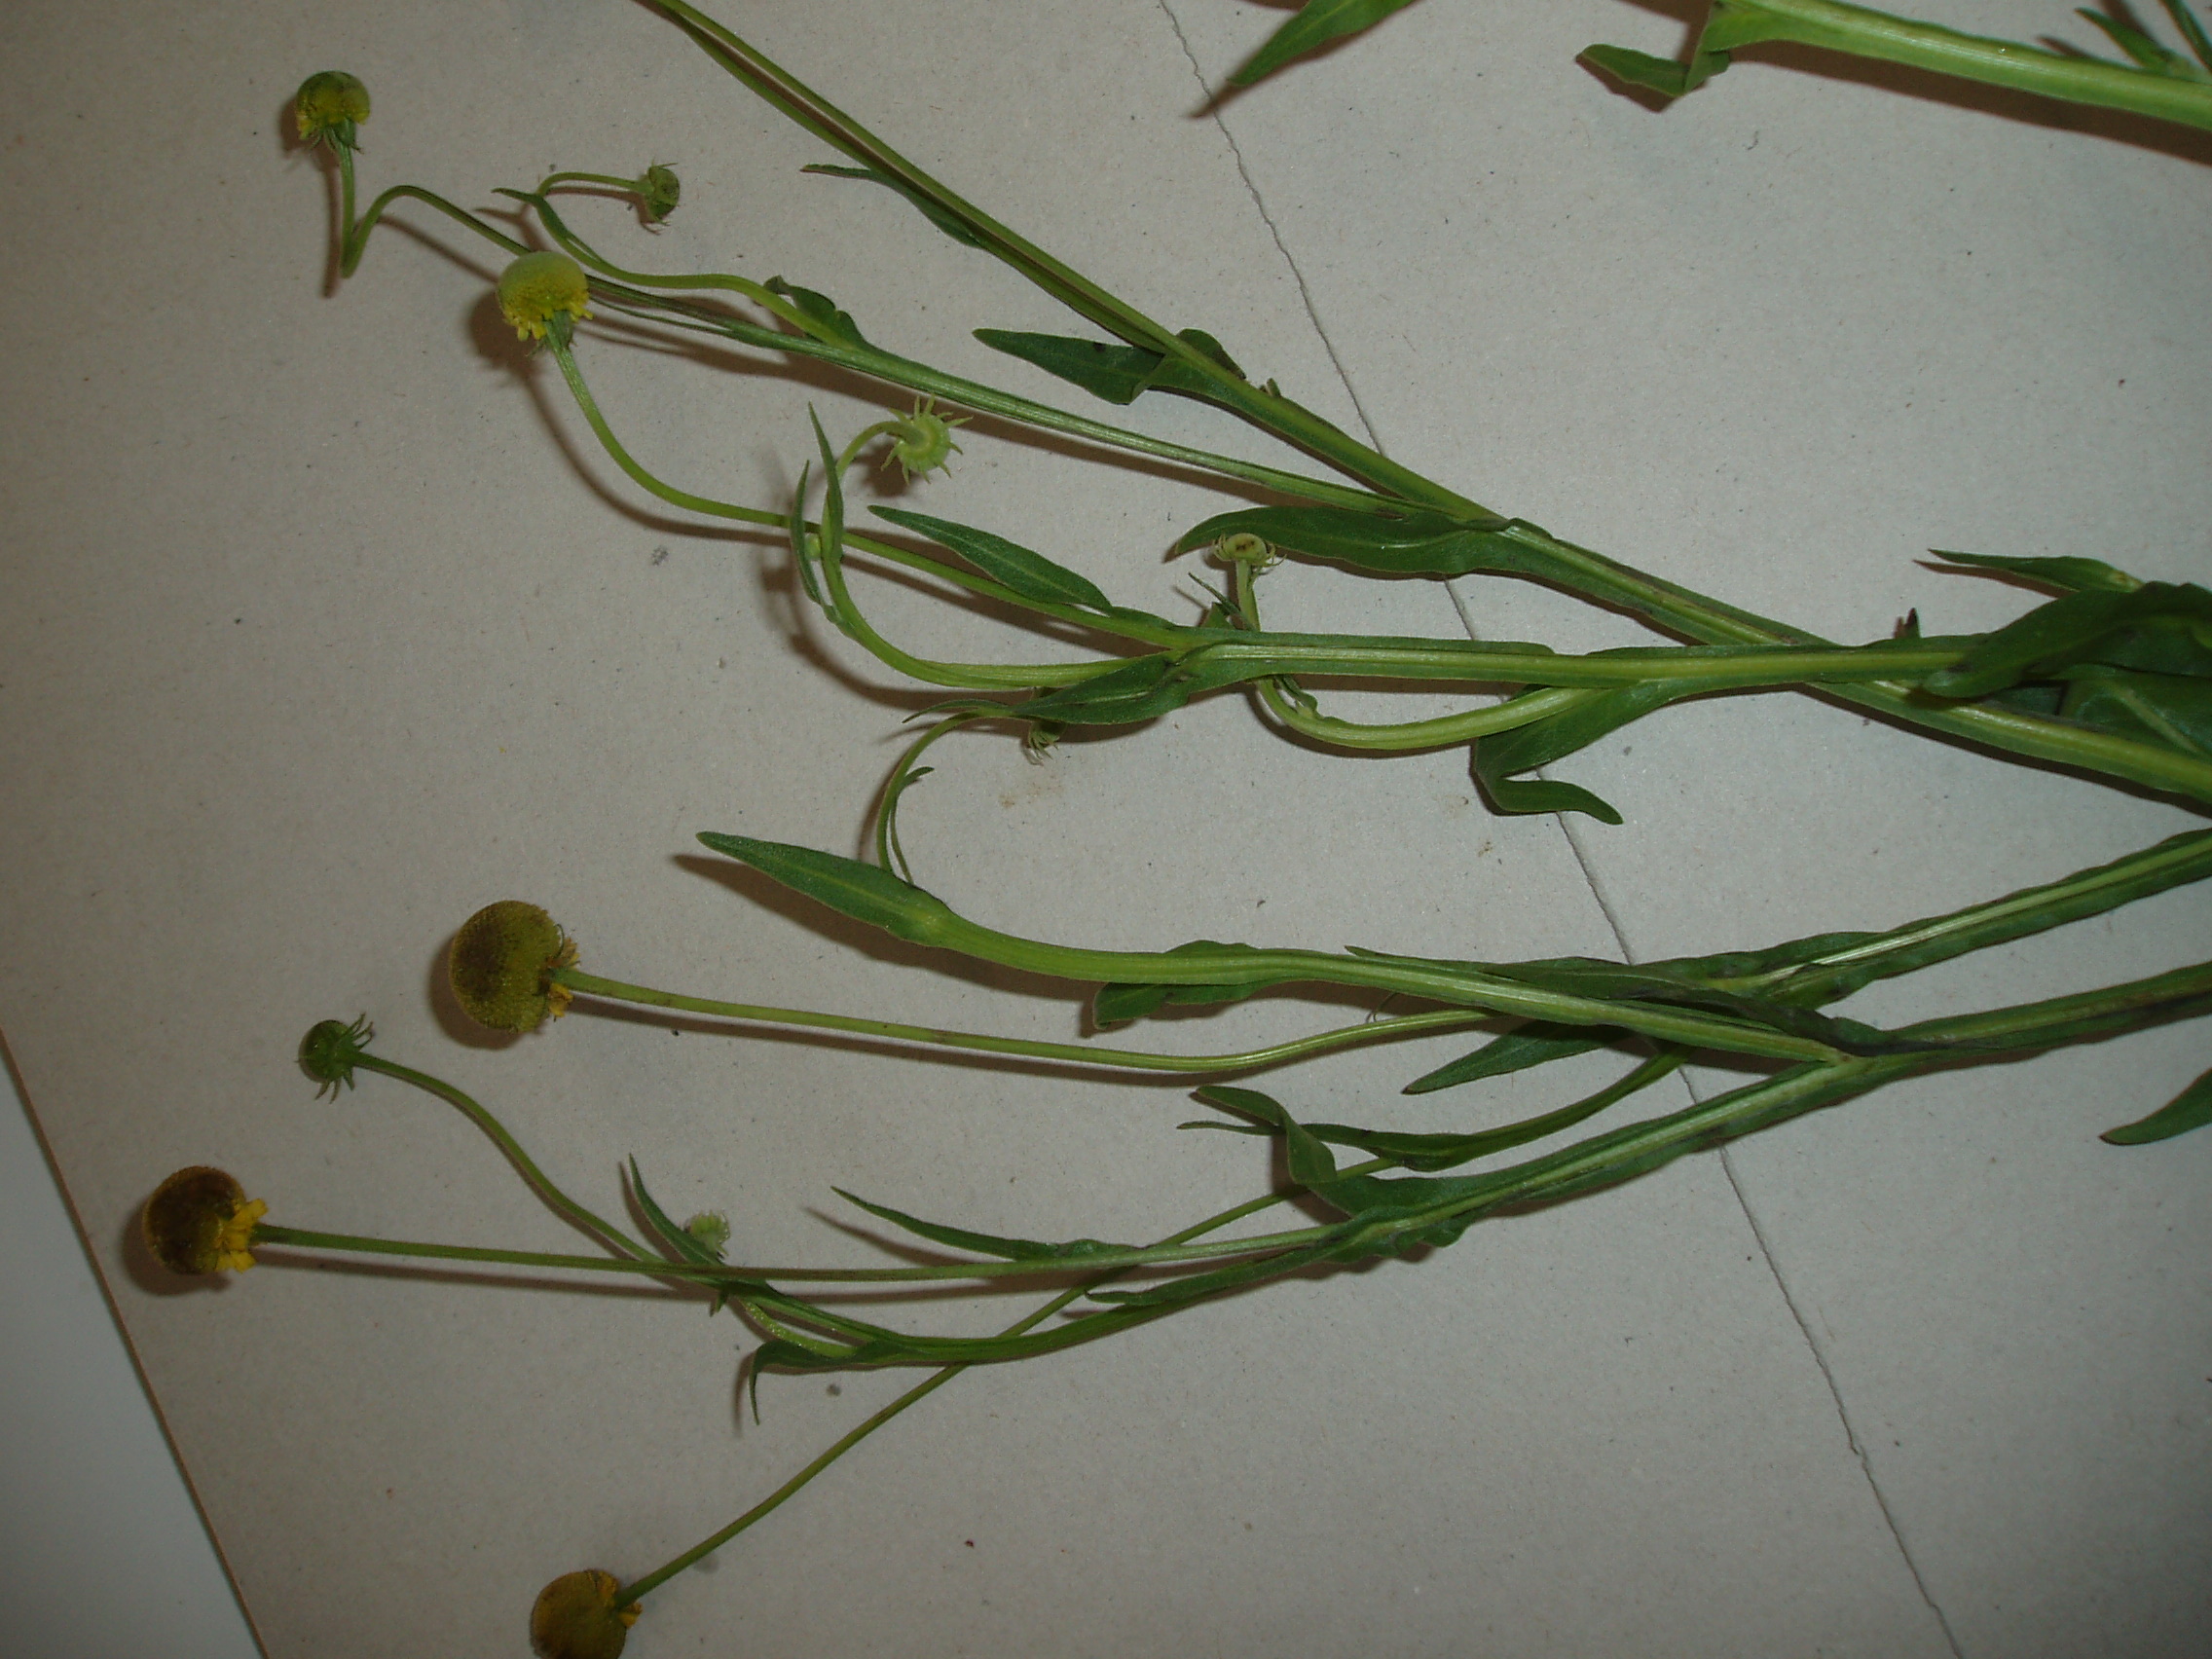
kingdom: Plantae
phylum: Tracheophyta
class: Magnoliopsida
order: Asterales
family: Asteraceae
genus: Helenium
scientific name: Helenium puberulum
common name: Sneezewort
